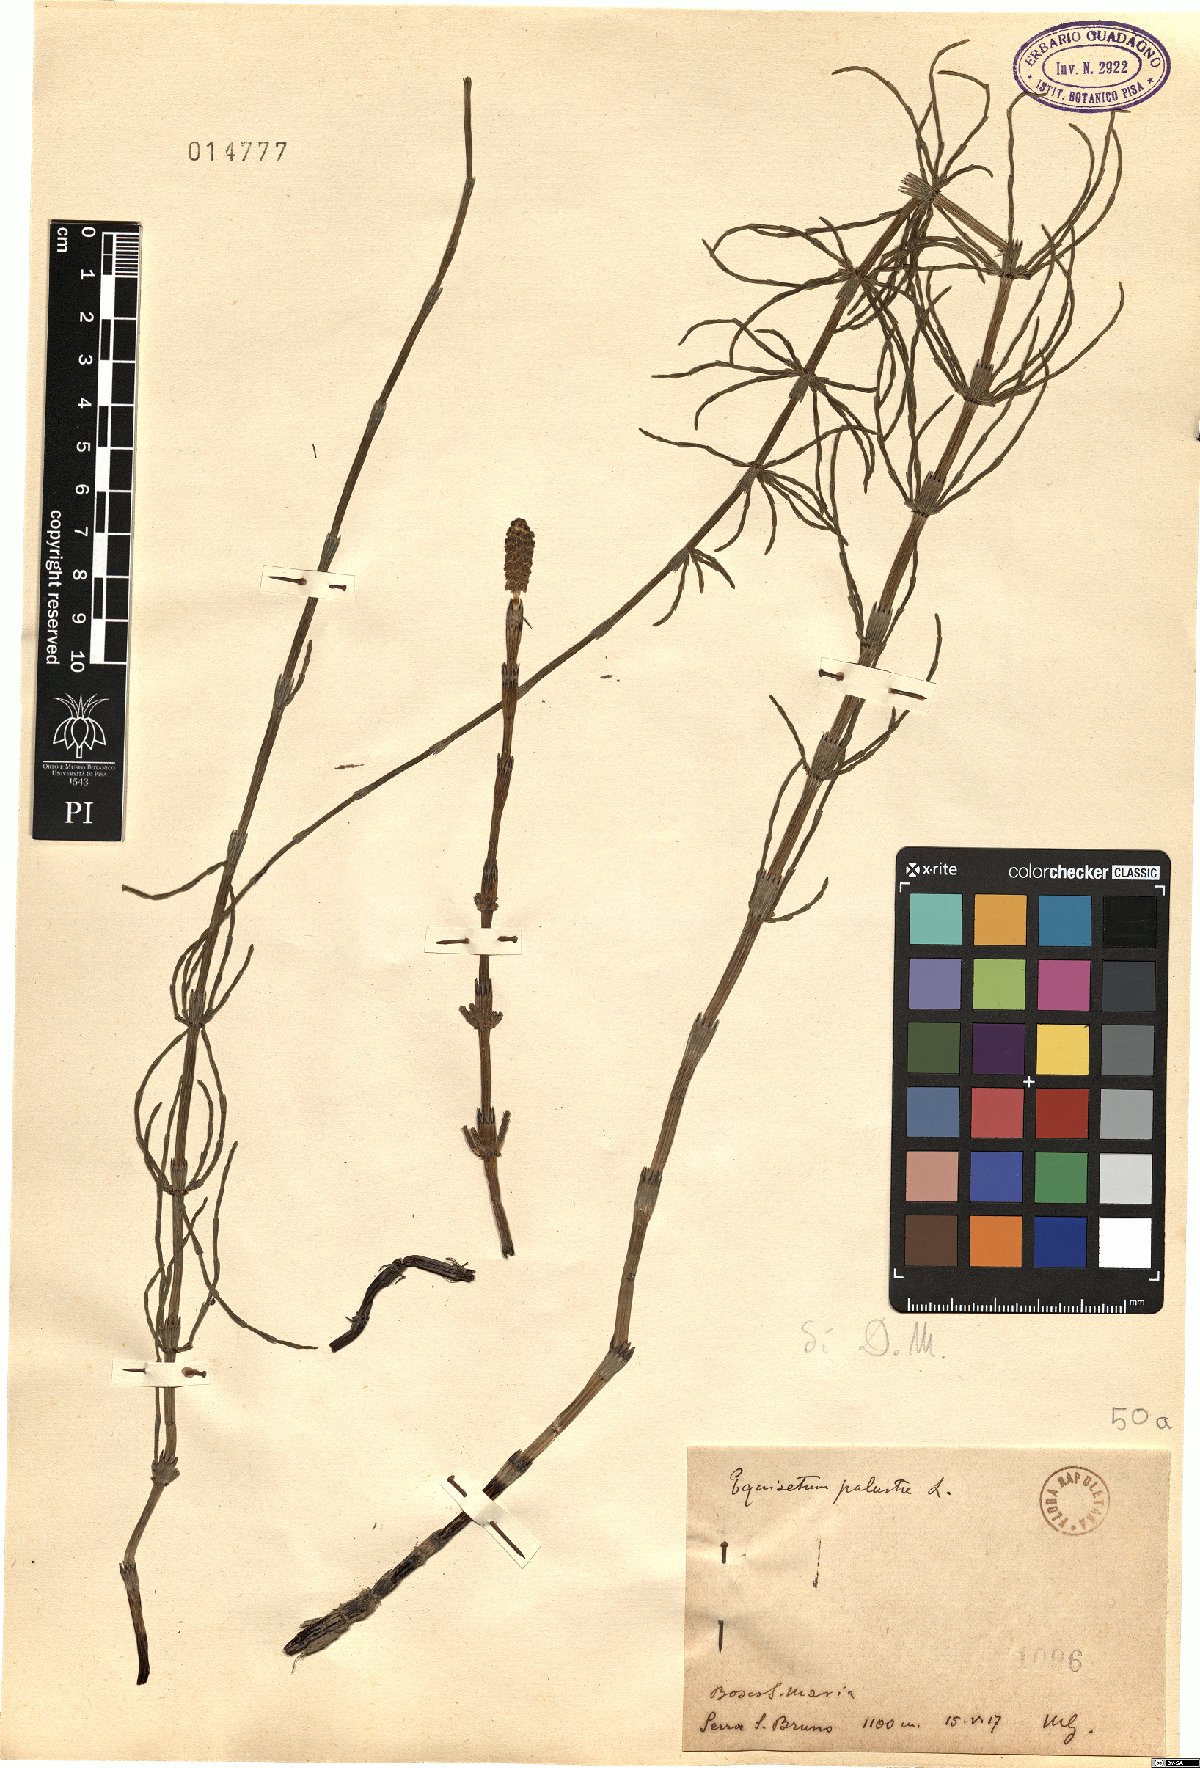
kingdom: Plantae
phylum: Tracheophyta
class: Polypodiopsida
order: Equisetales
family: Equisetaceae
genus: Equisetum
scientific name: Equisetum palustre
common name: Marsh horsetail
